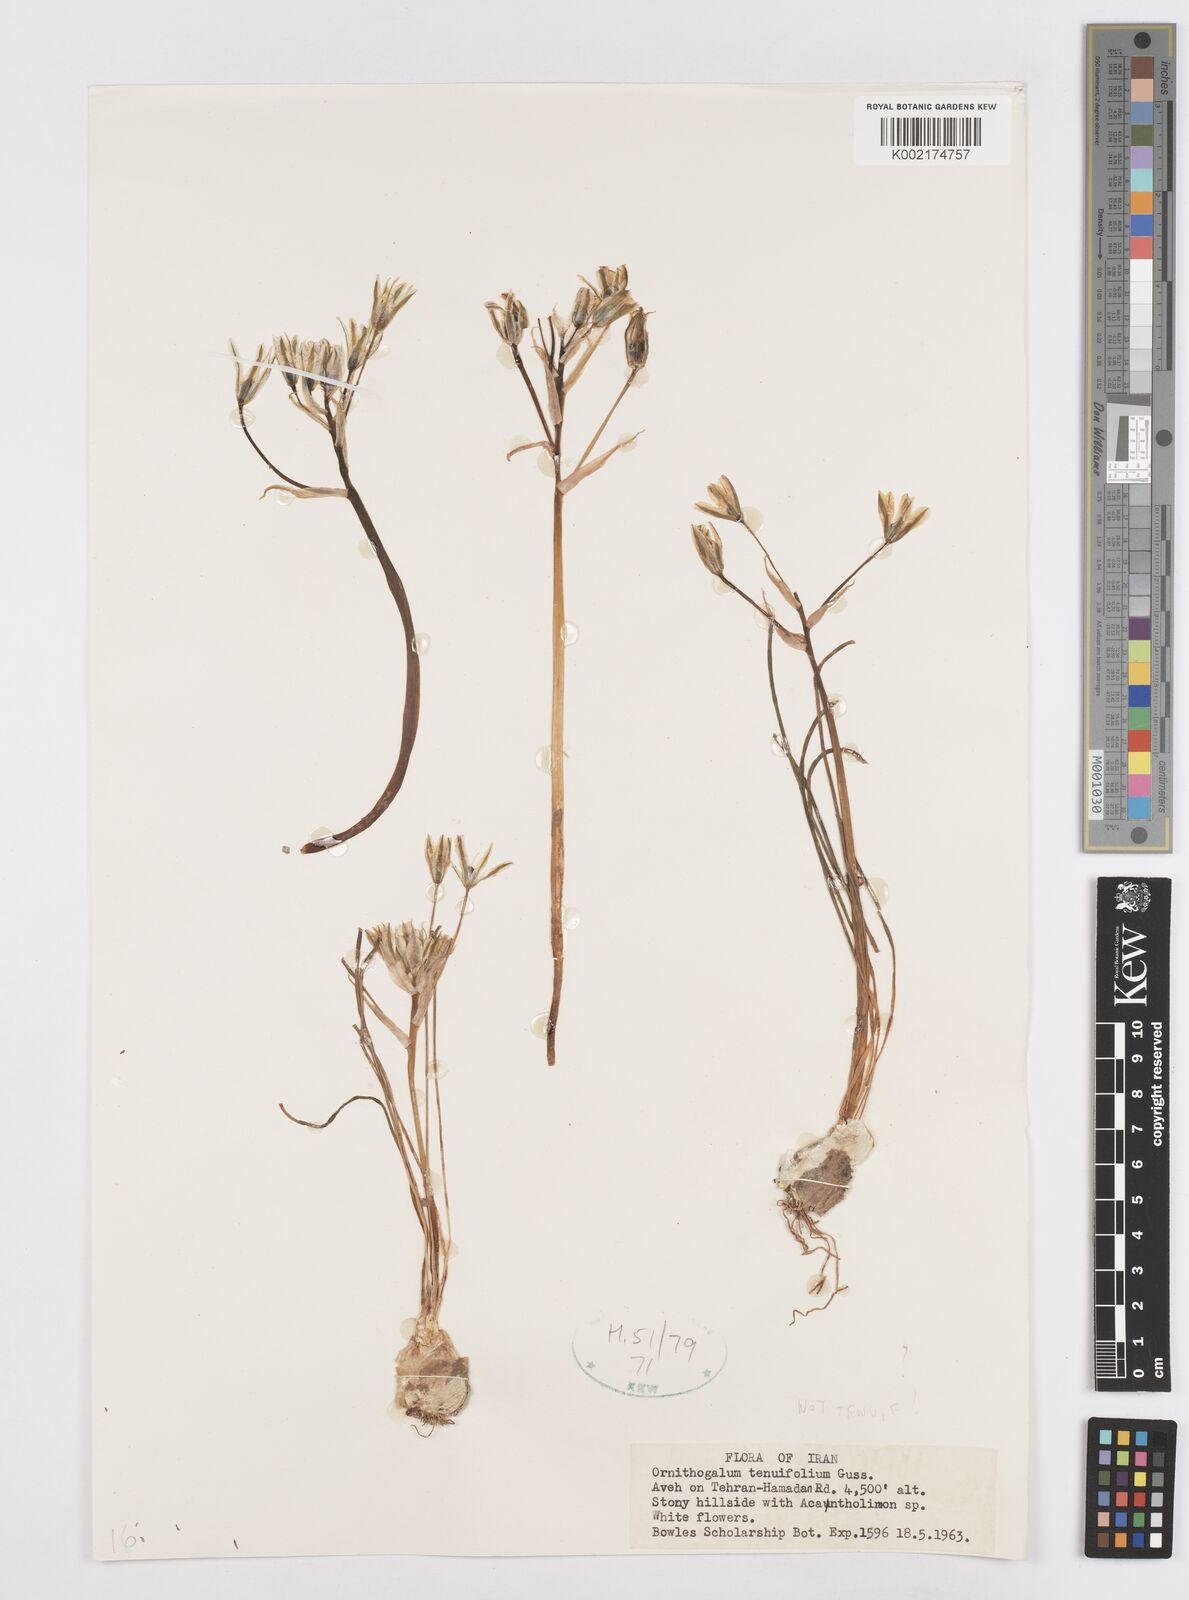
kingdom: Plantae
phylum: Tracheophyta
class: Liliopsida
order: Asparagales
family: Asparagaceae
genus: Ornithogalum
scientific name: Ornithogalum
